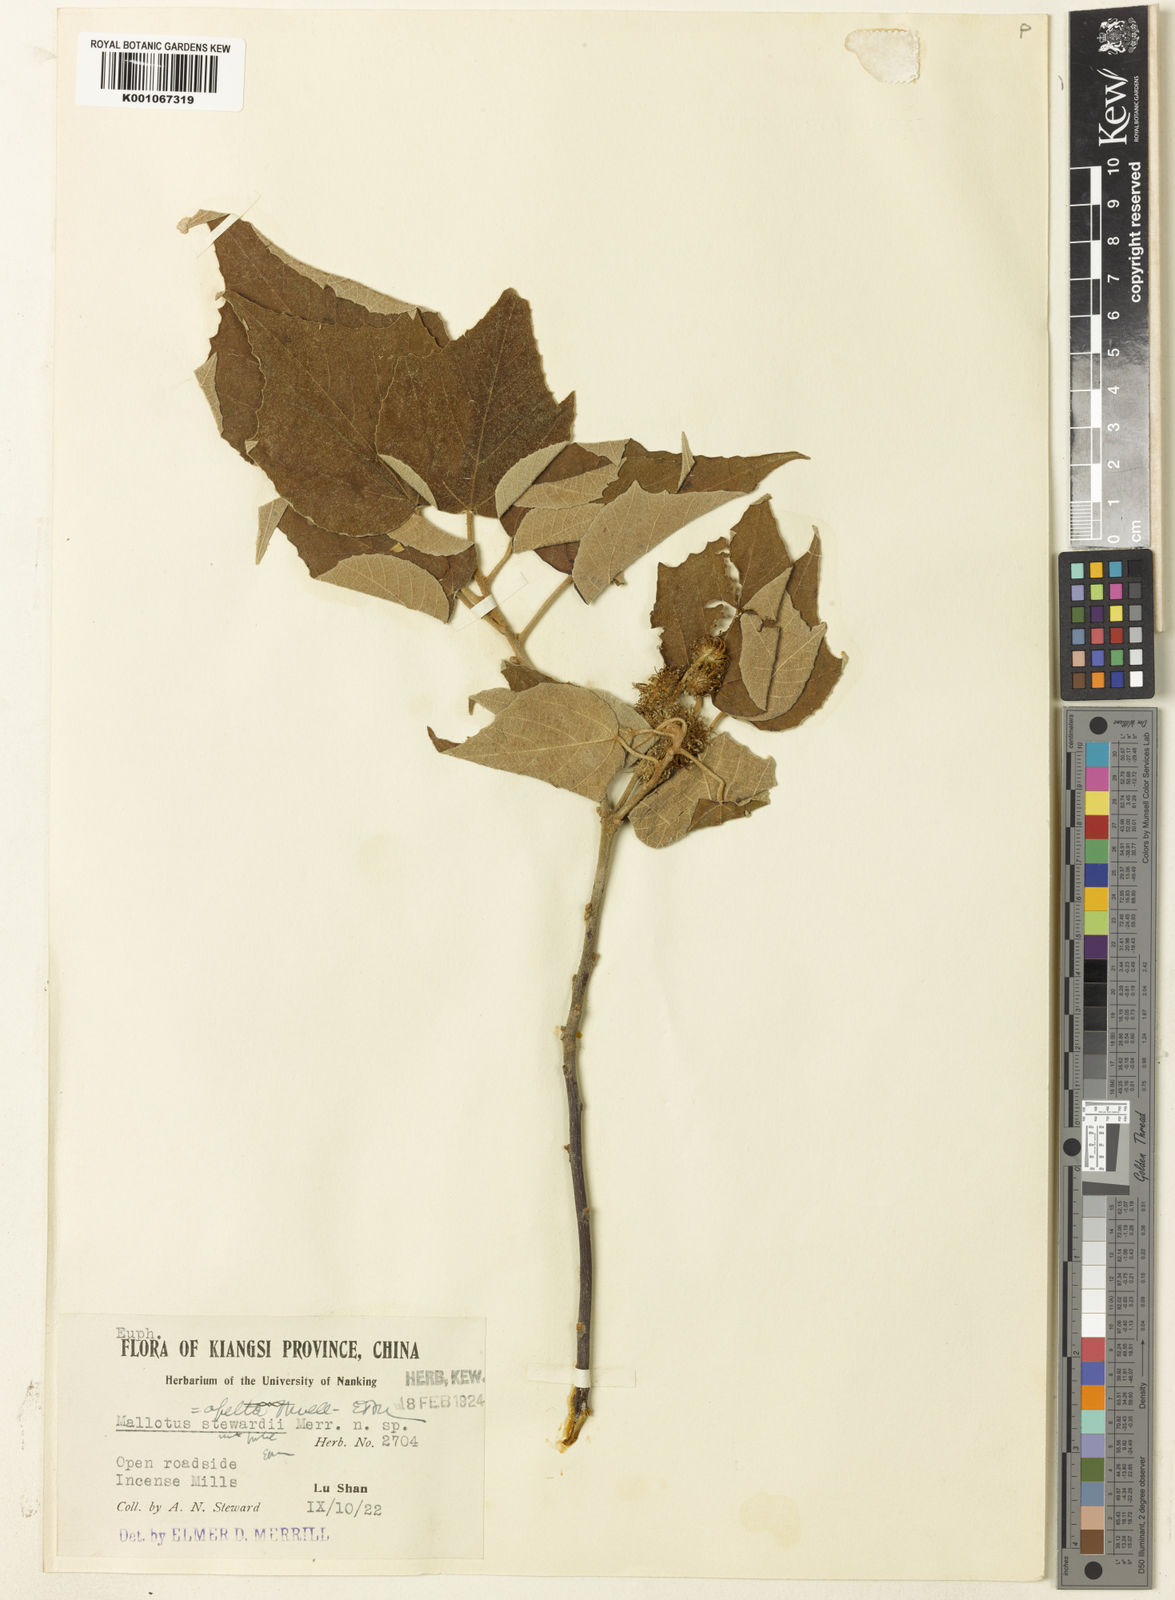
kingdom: Plantae
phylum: Tracheophyta
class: Magnoliopsida
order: Malpighiales
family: Euphorbiaceae
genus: Mallotus
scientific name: Mallotus tenuifolius
